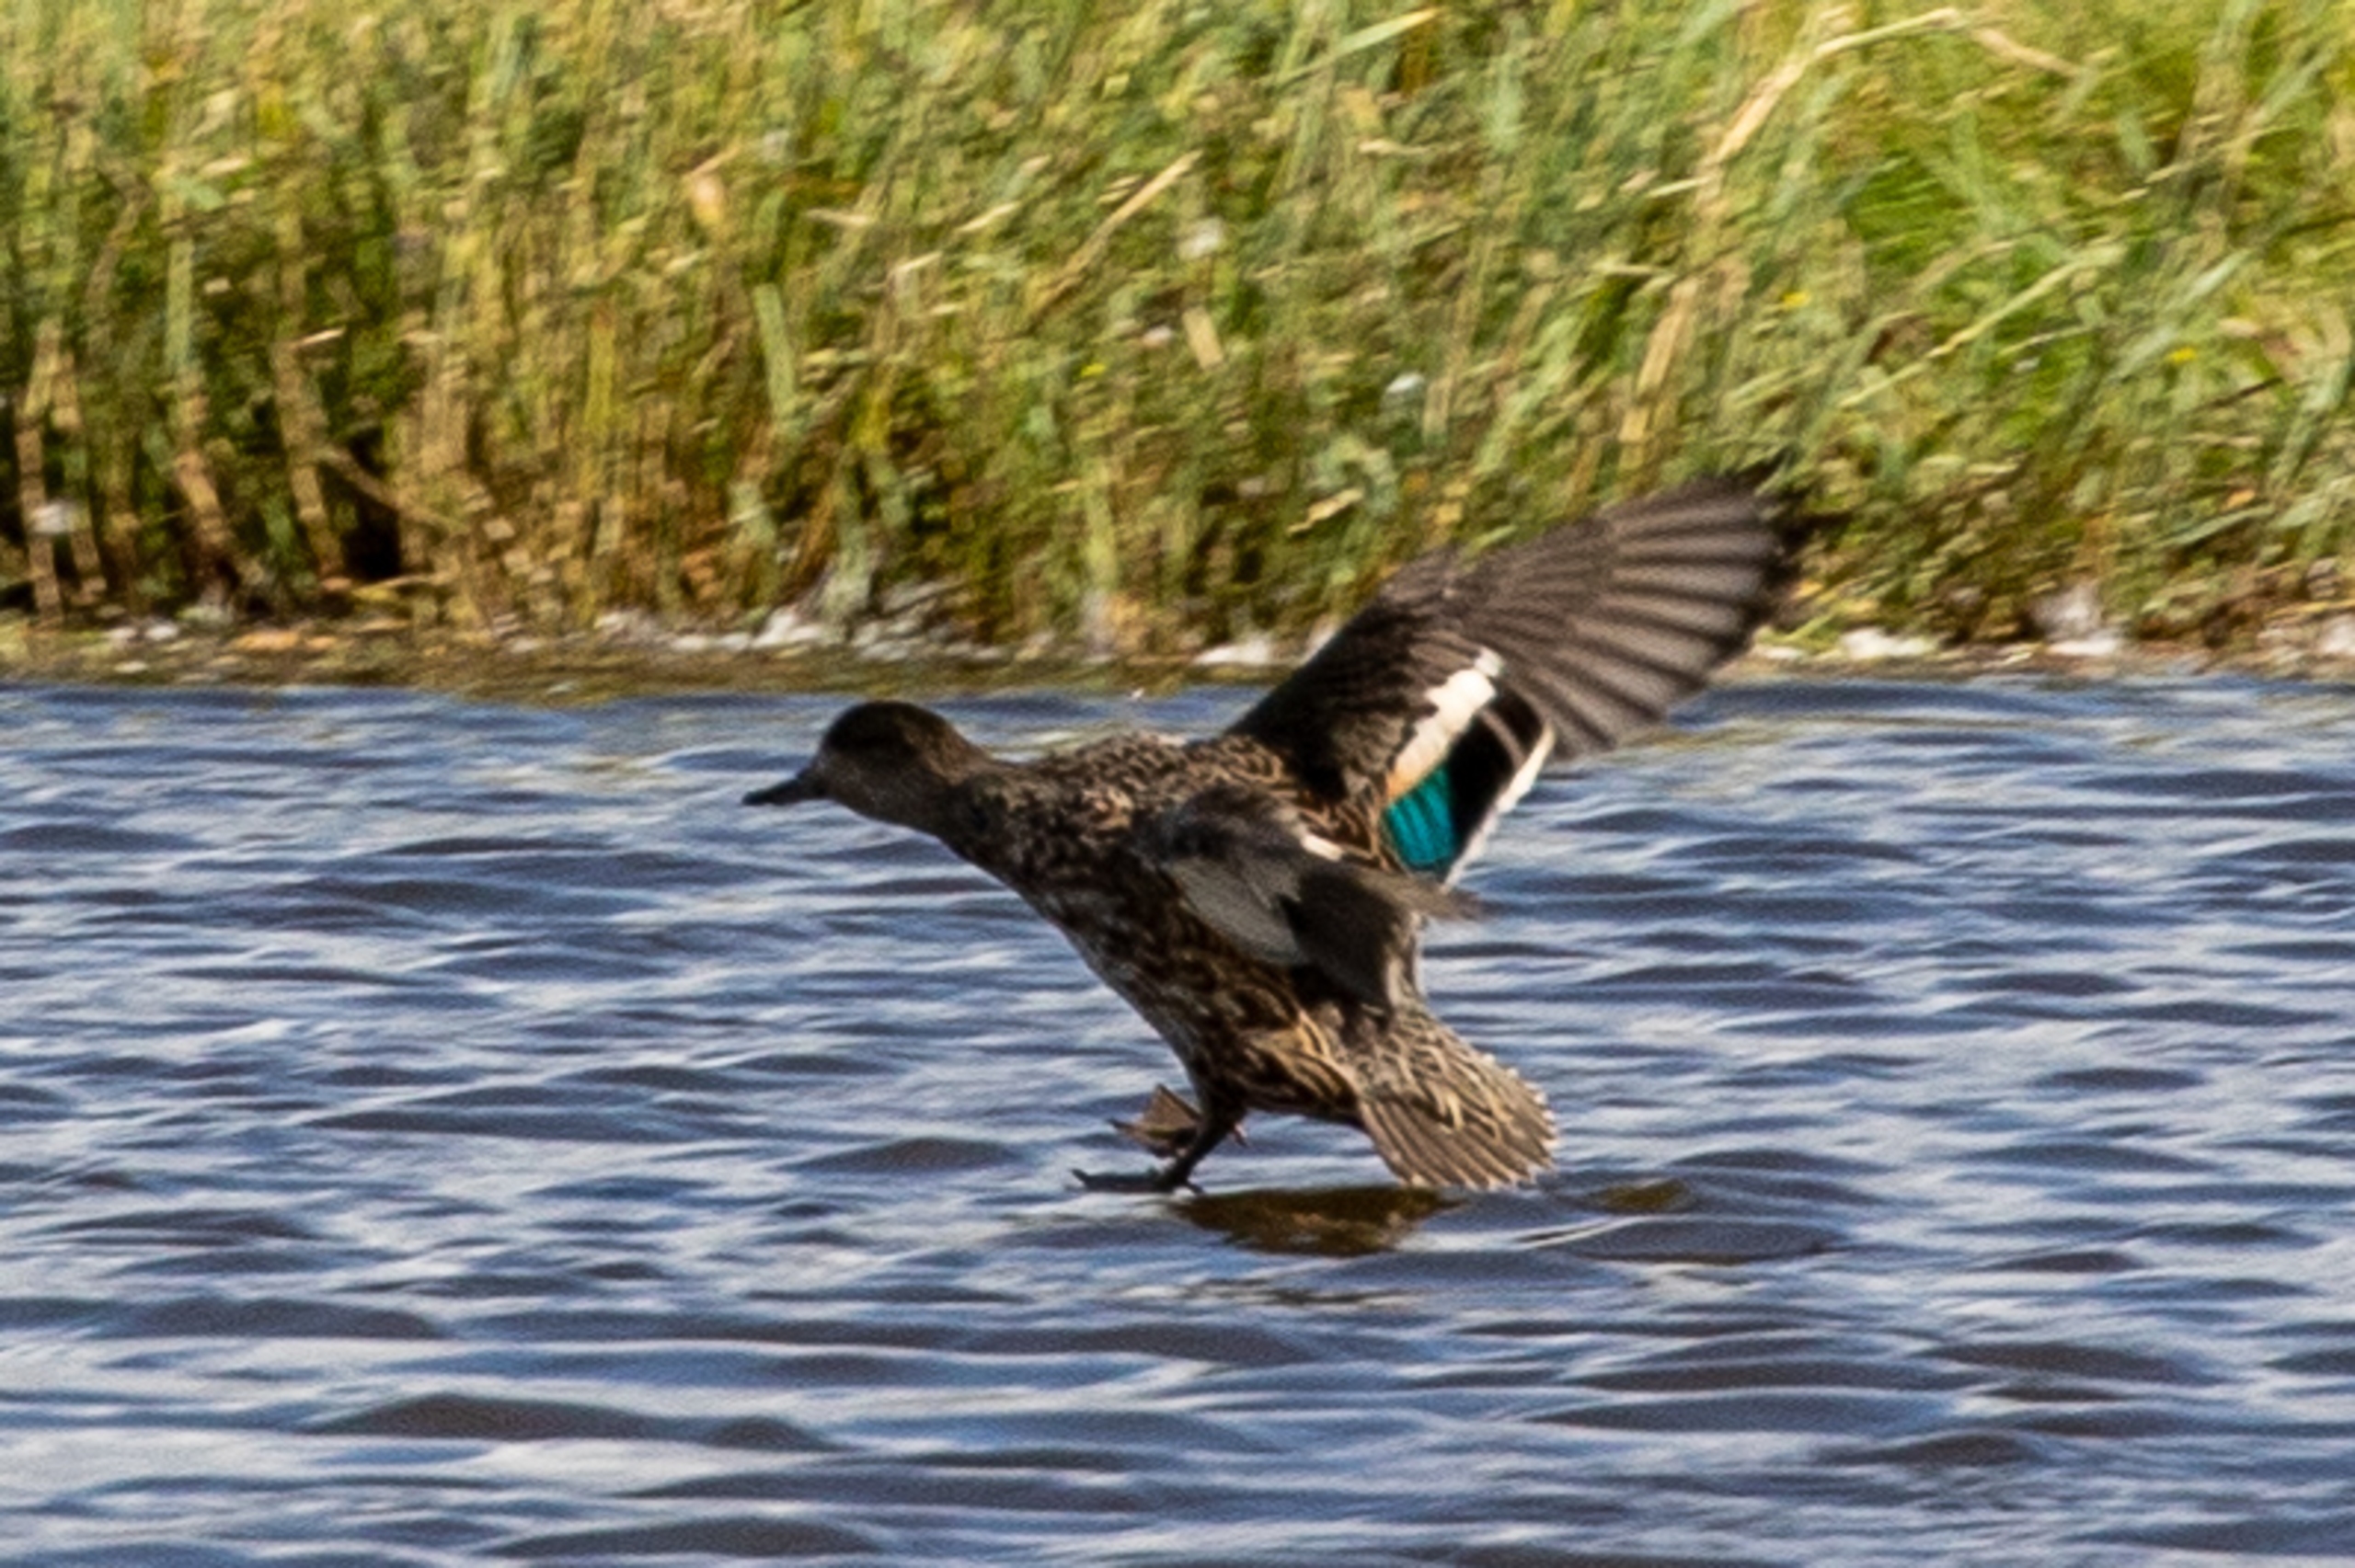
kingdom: Animalia
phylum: Chordata
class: Aves
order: Anseriformes
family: Anatidae
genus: Anas
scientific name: Anas crecca
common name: Krikand
